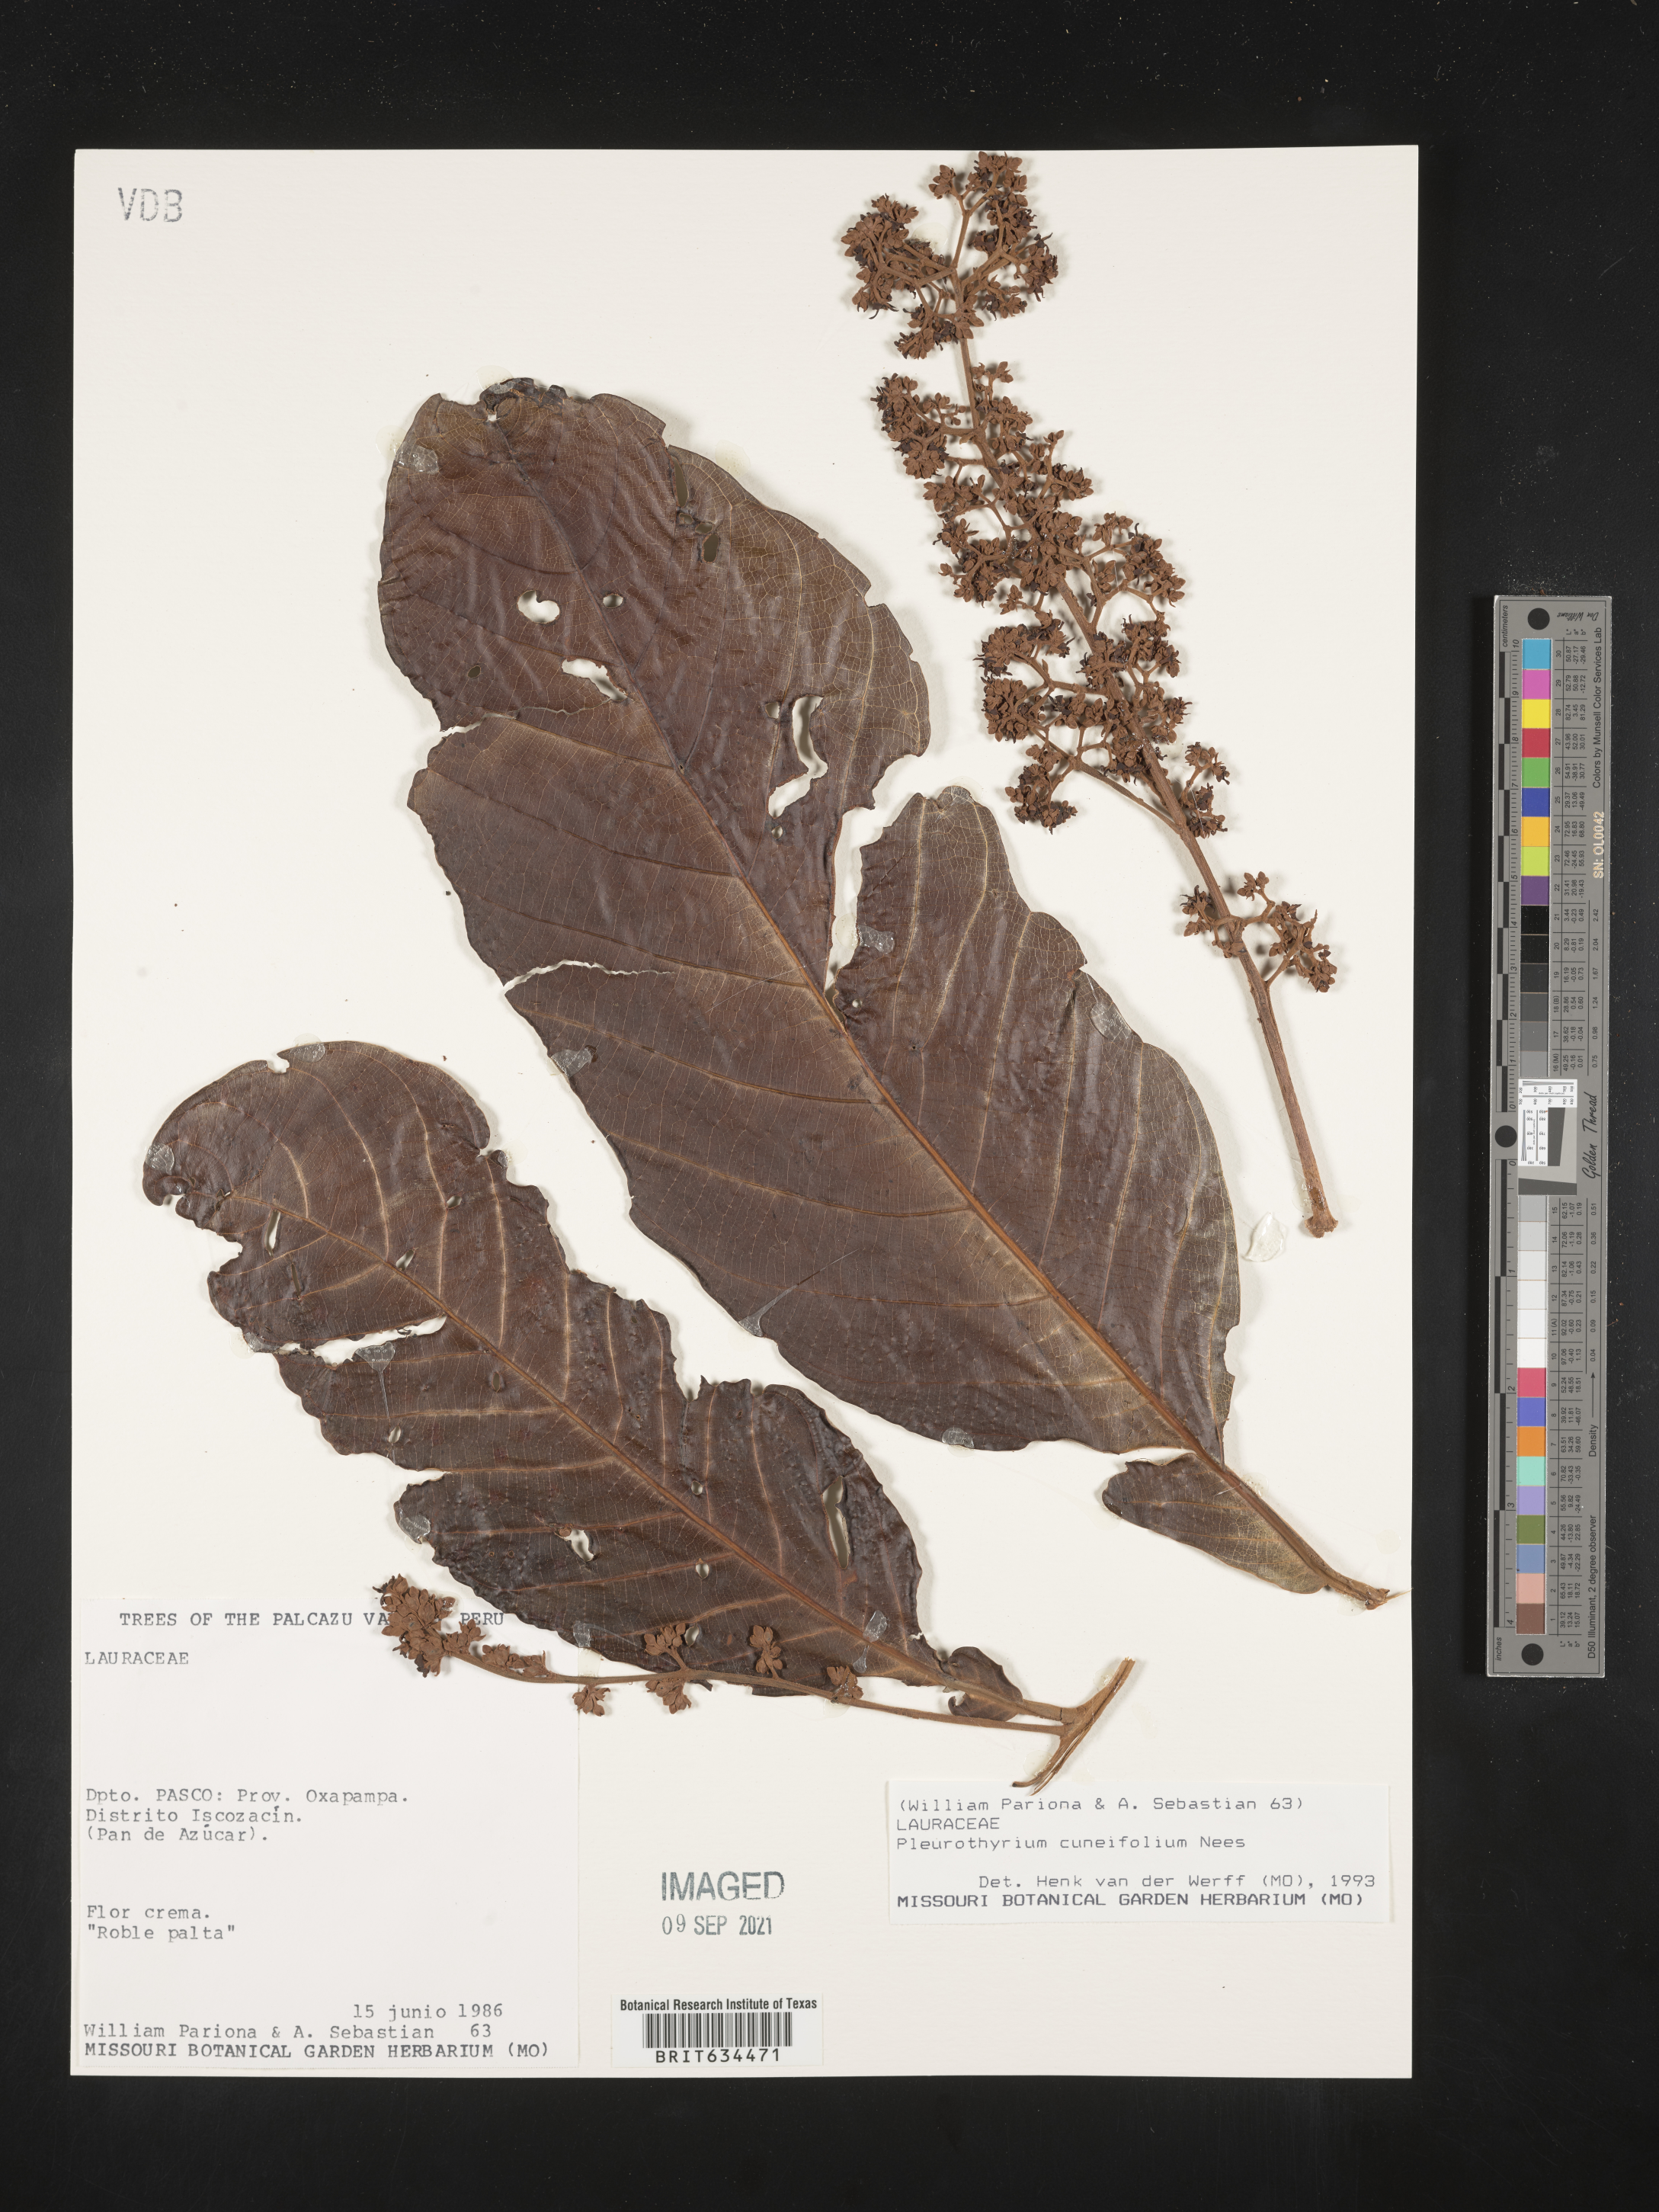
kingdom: Plantae
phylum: Tracheophyta
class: Magnoliopsida
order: Laurales
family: Lauraceae
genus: Pleurothyrium
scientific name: Pleurothyrium
